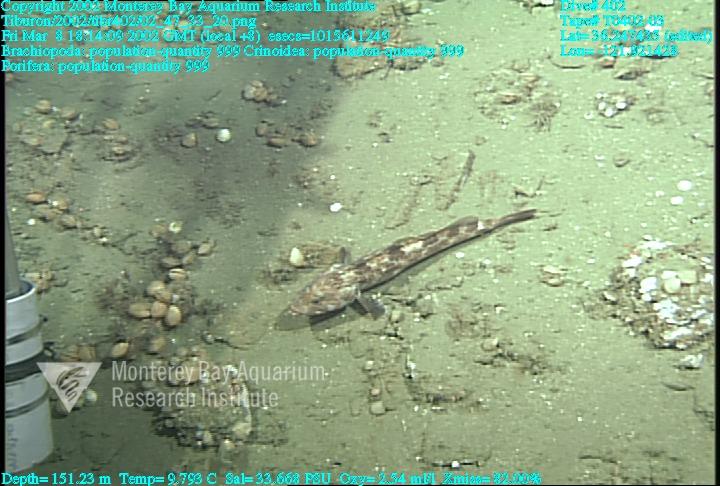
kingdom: Animalia
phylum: Porifera
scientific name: Porifera
